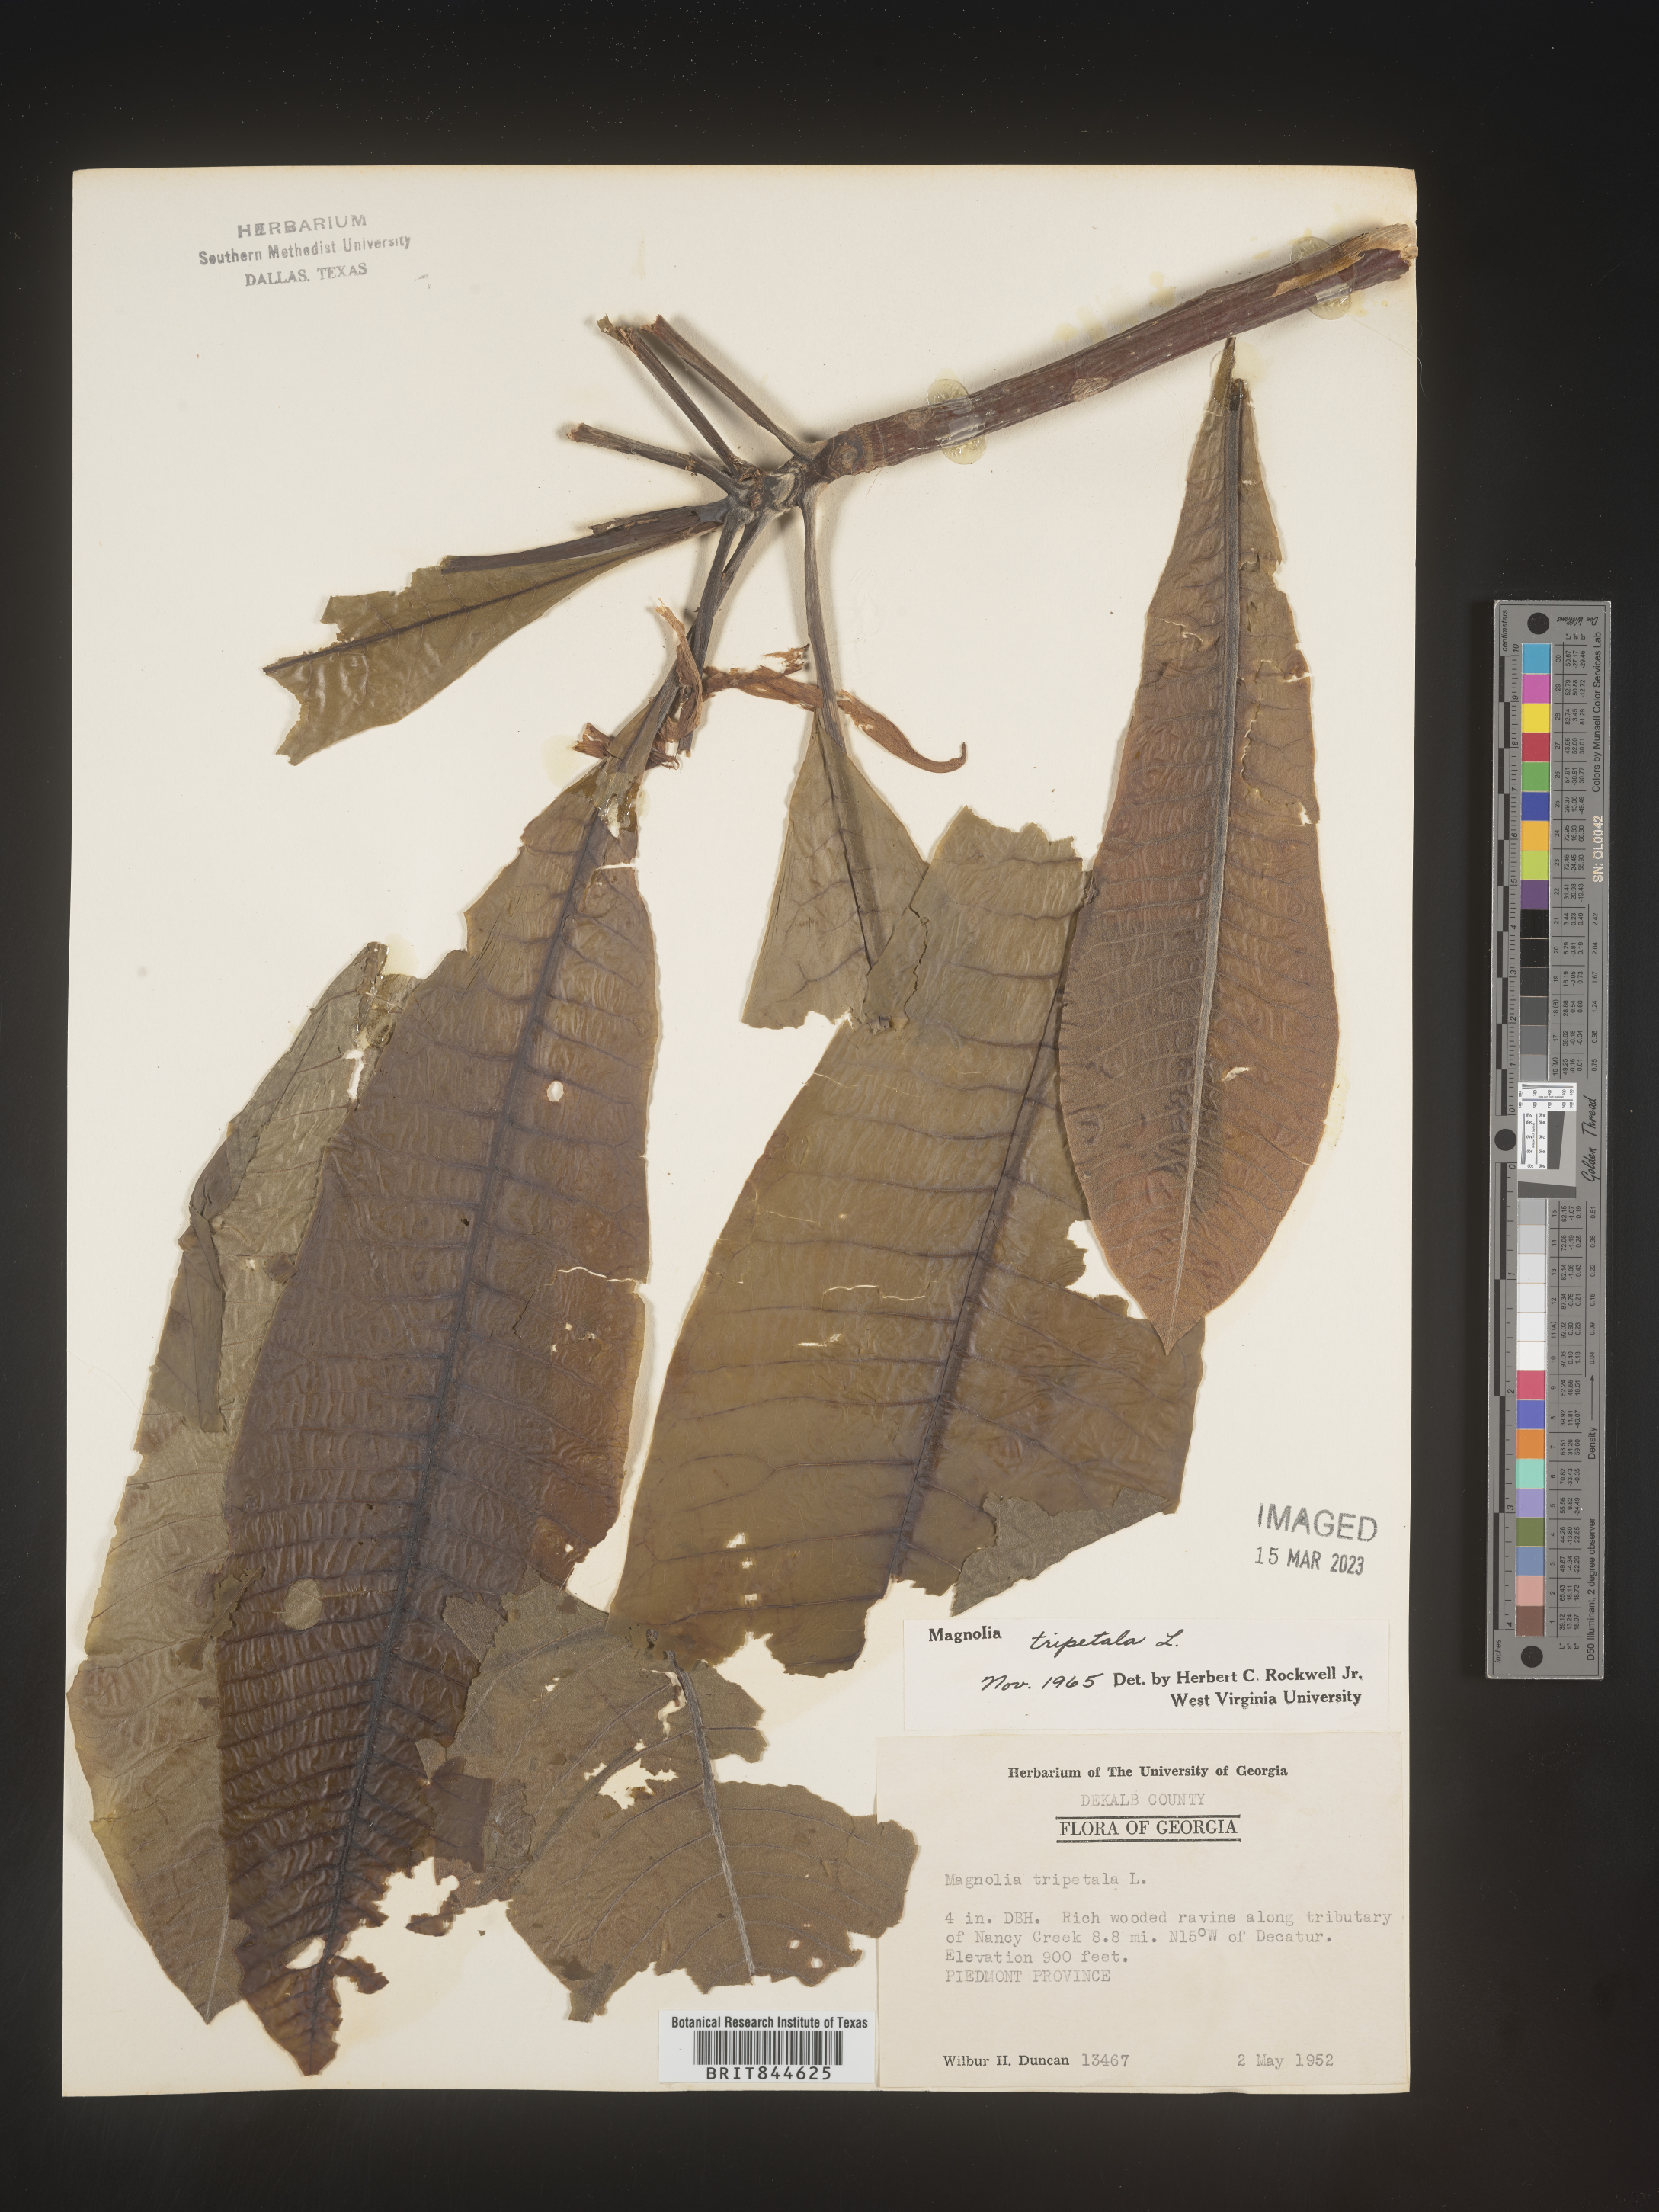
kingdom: Plantae
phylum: Tracheophyta
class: Magnoliopsida
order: Magnoliales
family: Magnoliaceae
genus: Magnolia
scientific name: Magnolia tripetala
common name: Umbrella magnolia
